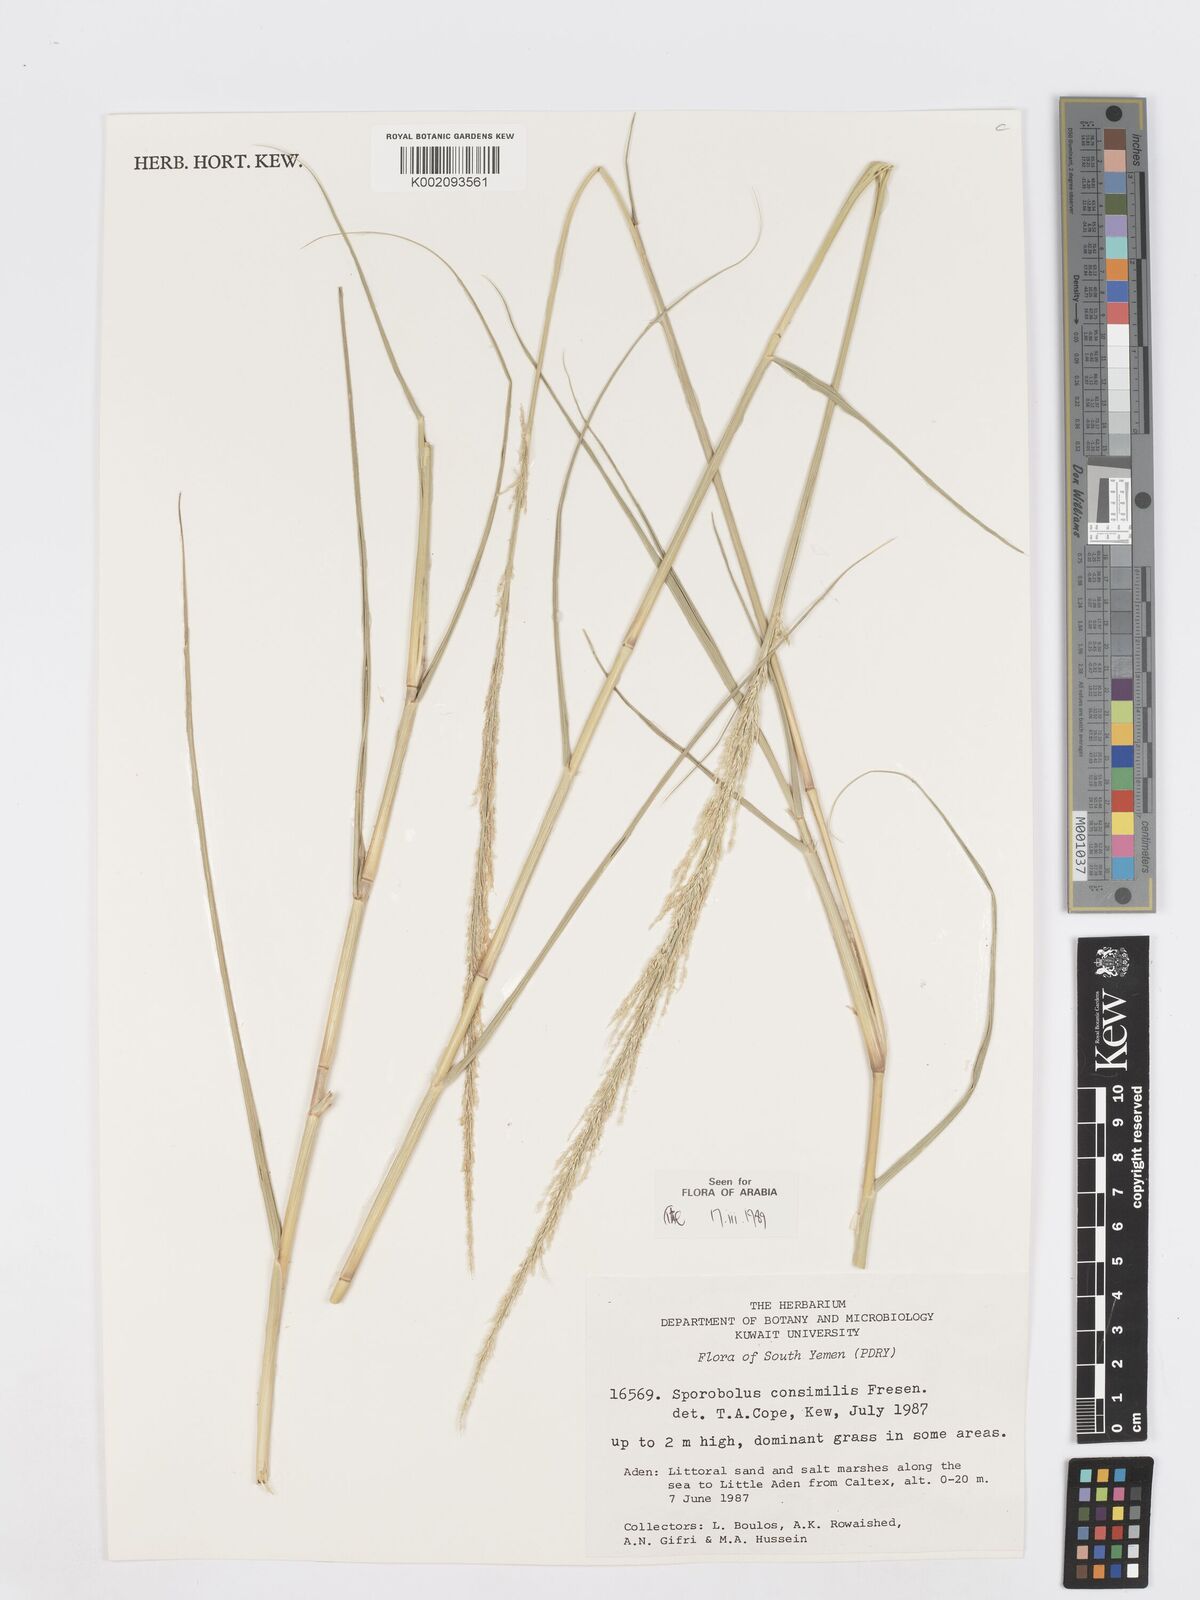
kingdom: Plantae
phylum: Tracheophyta
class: Liliopsida
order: Poales
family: Poaceae
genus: Sporobolus
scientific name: Sporobolus consimilis
